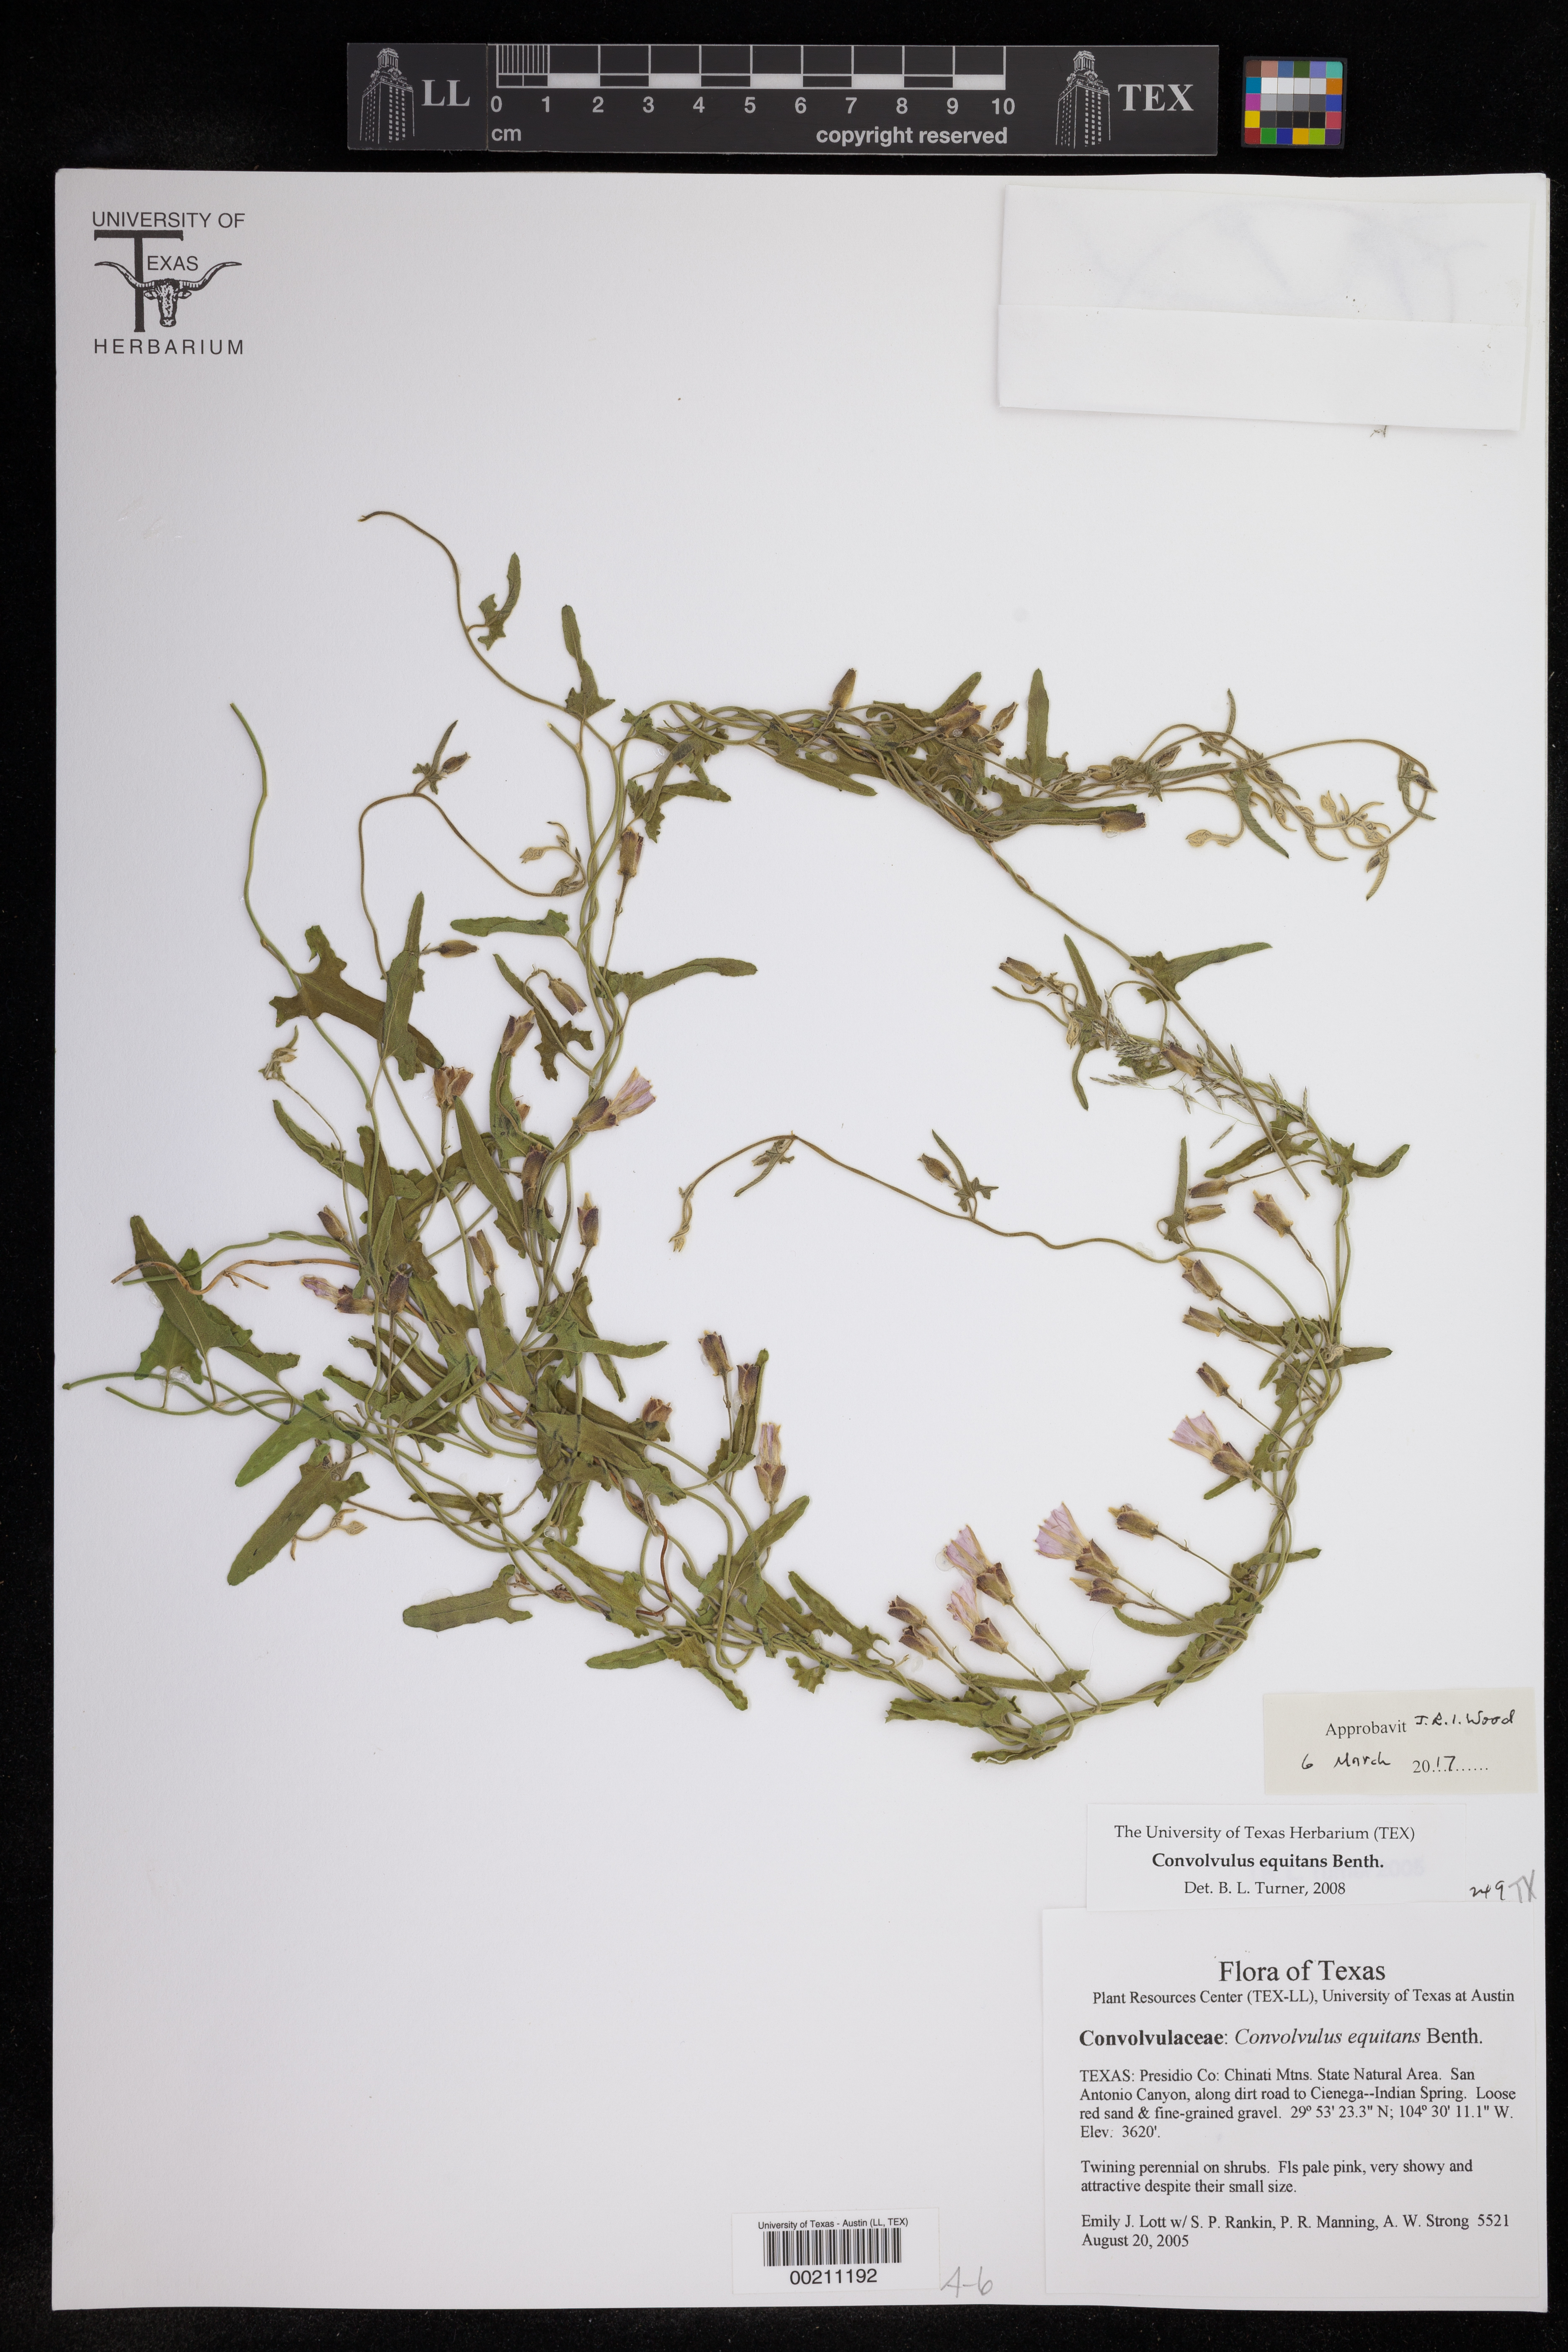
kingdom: Plantae
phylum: Tracheophyta
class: Magnoliopsida
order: Solanales
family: Convolvulaceae
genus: Convolvulus
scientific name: Convolvulus equitans
